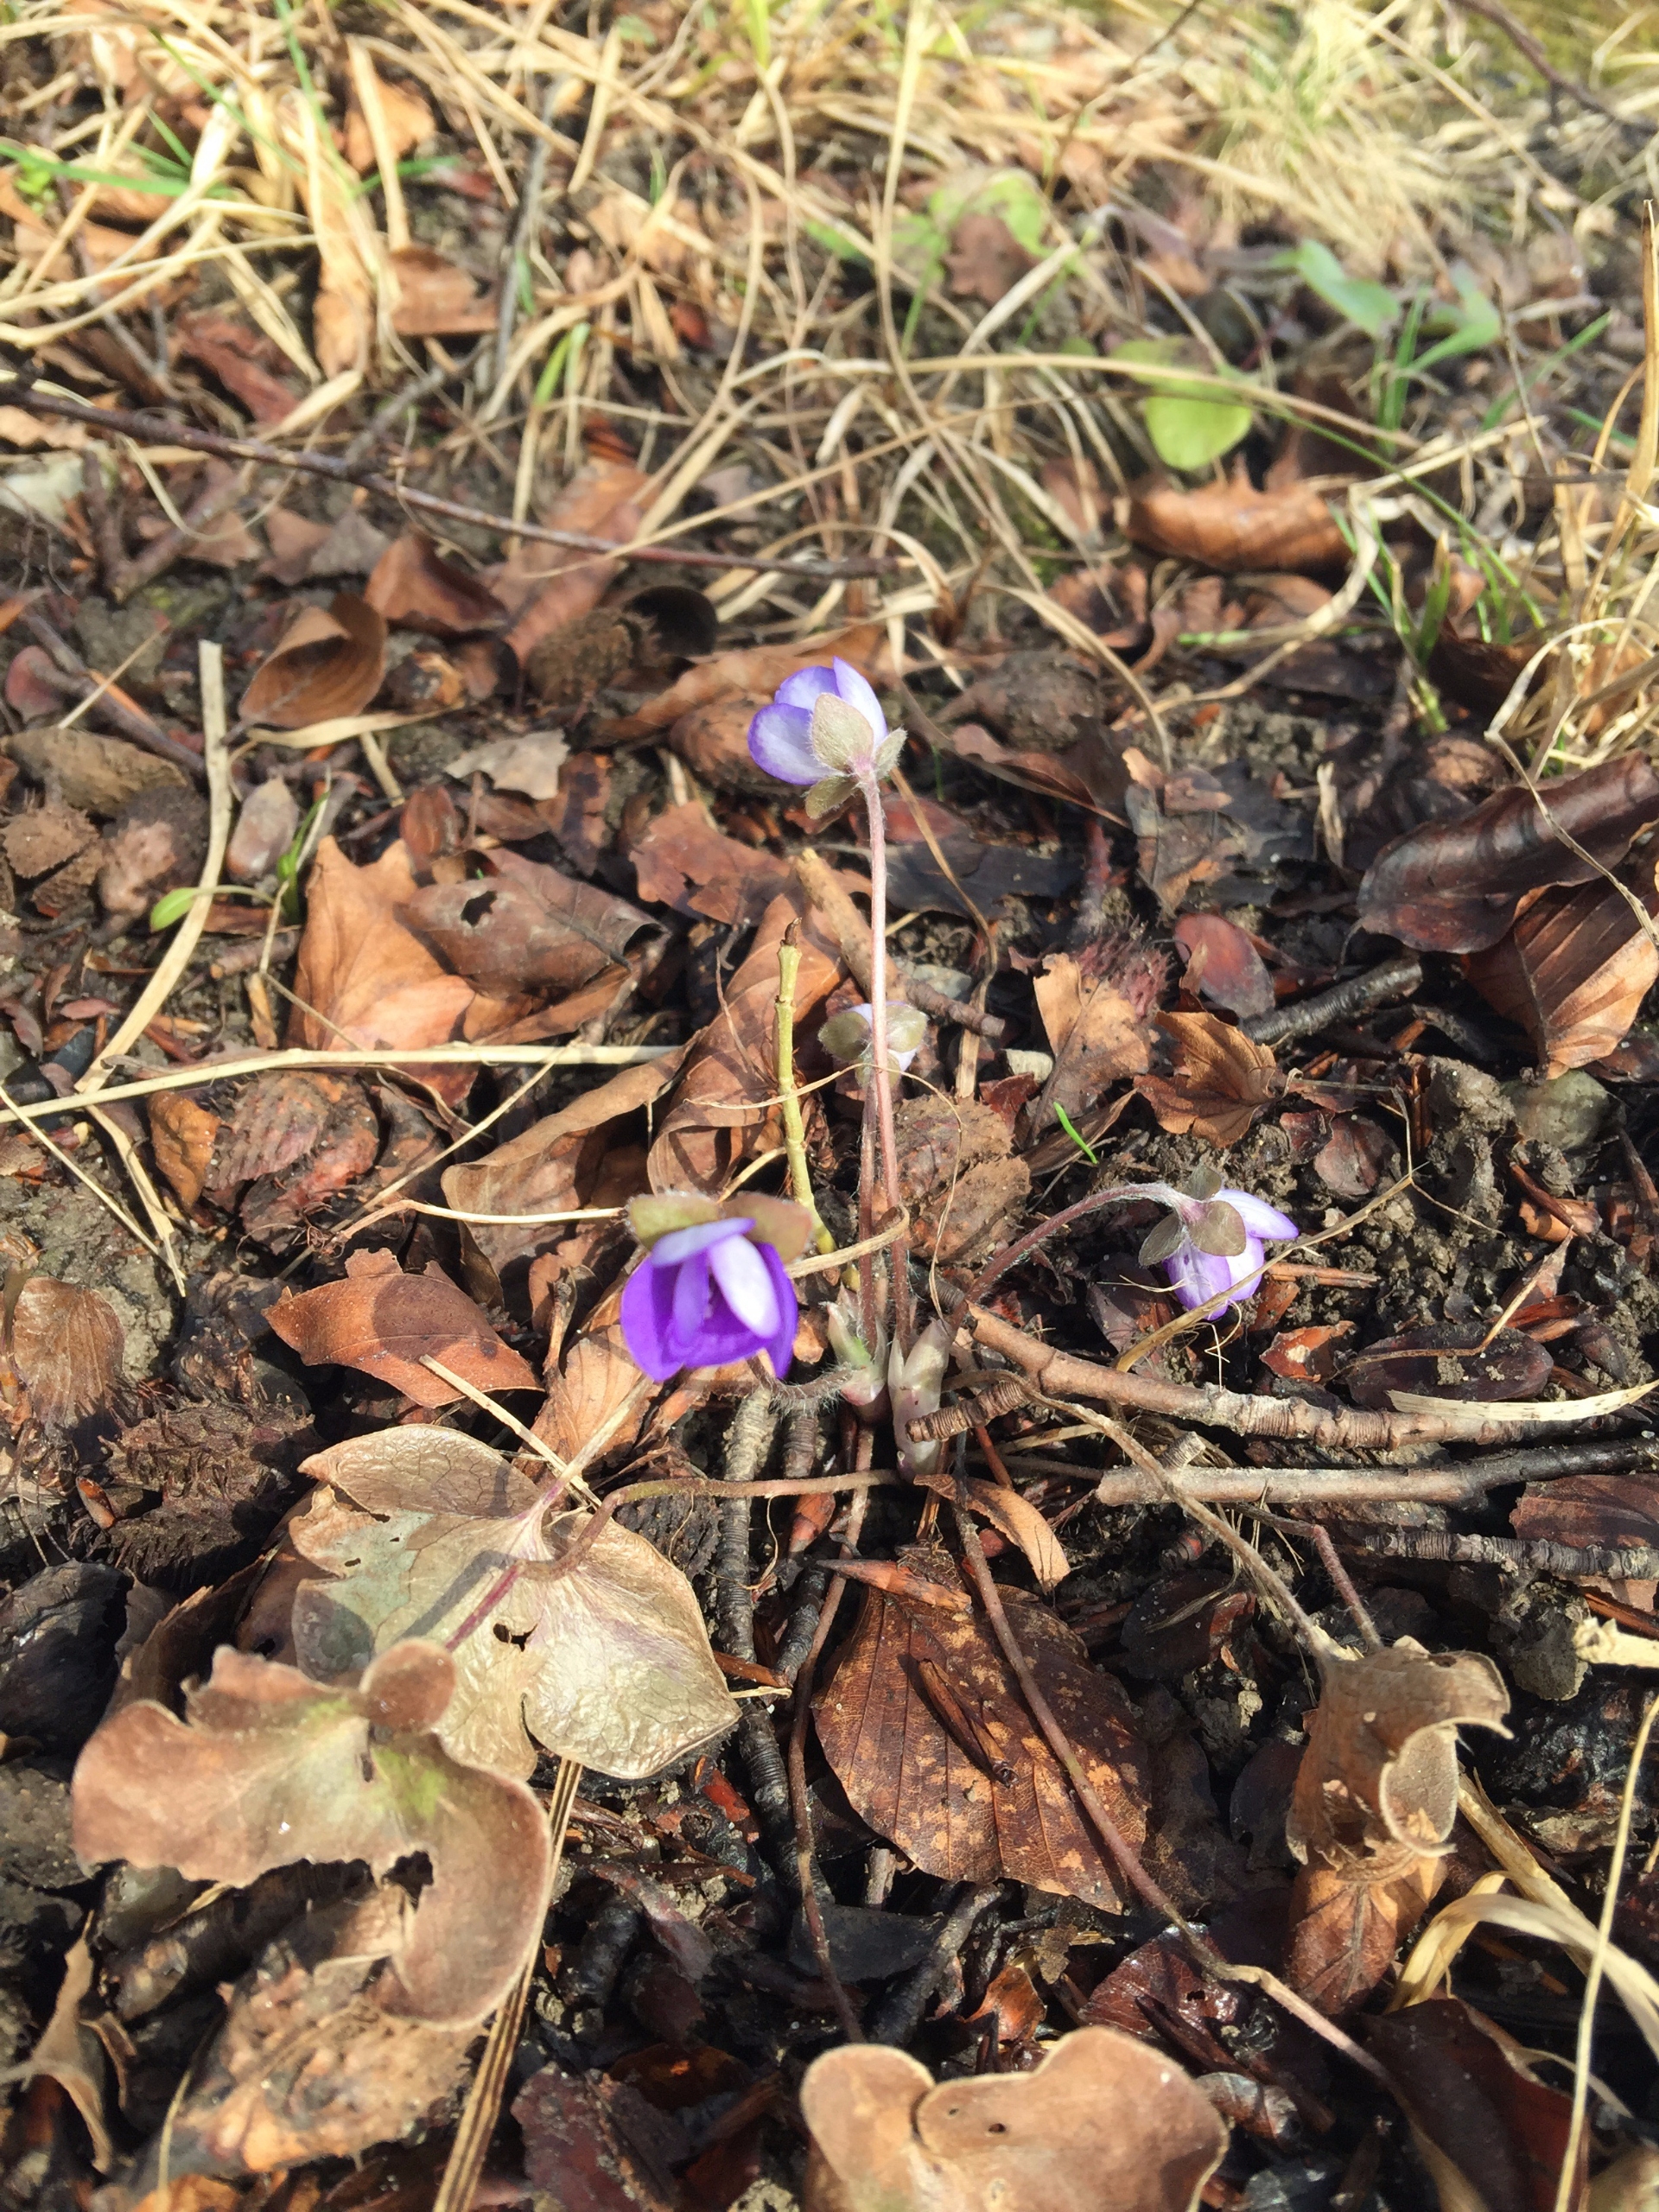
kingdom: Plantae
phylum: Tracheophyta
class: Magnoliopsida
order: Ranunculales
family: Ranunculaceae
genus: Hepatica
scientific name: Hepatica nobilis
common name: Blå anemone
